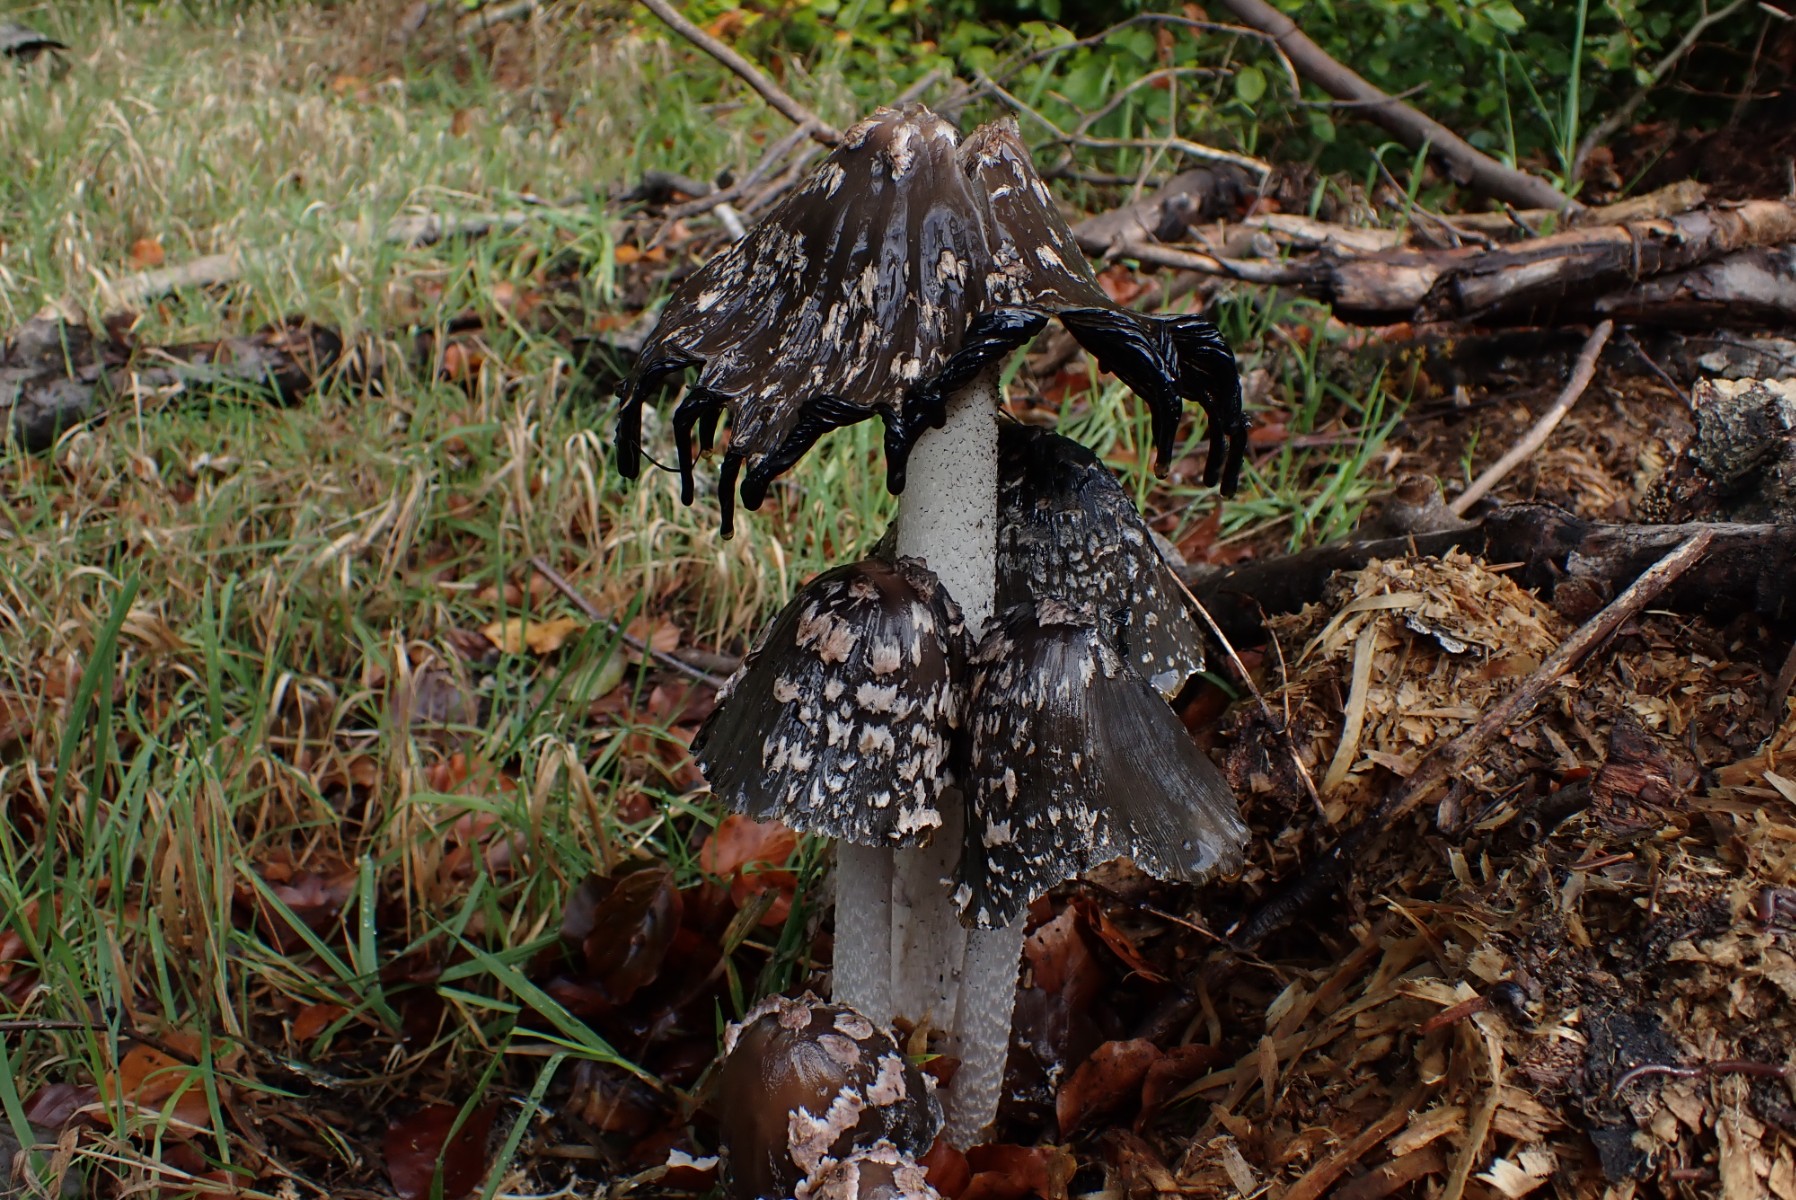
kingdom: Fungi
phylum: Basidiomycota
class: Agaricomycetes
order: Agaricales
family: Psathyrellaceae
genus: Coprinopsis
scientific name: Coprinopsis picacea
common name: skade-blækhat
